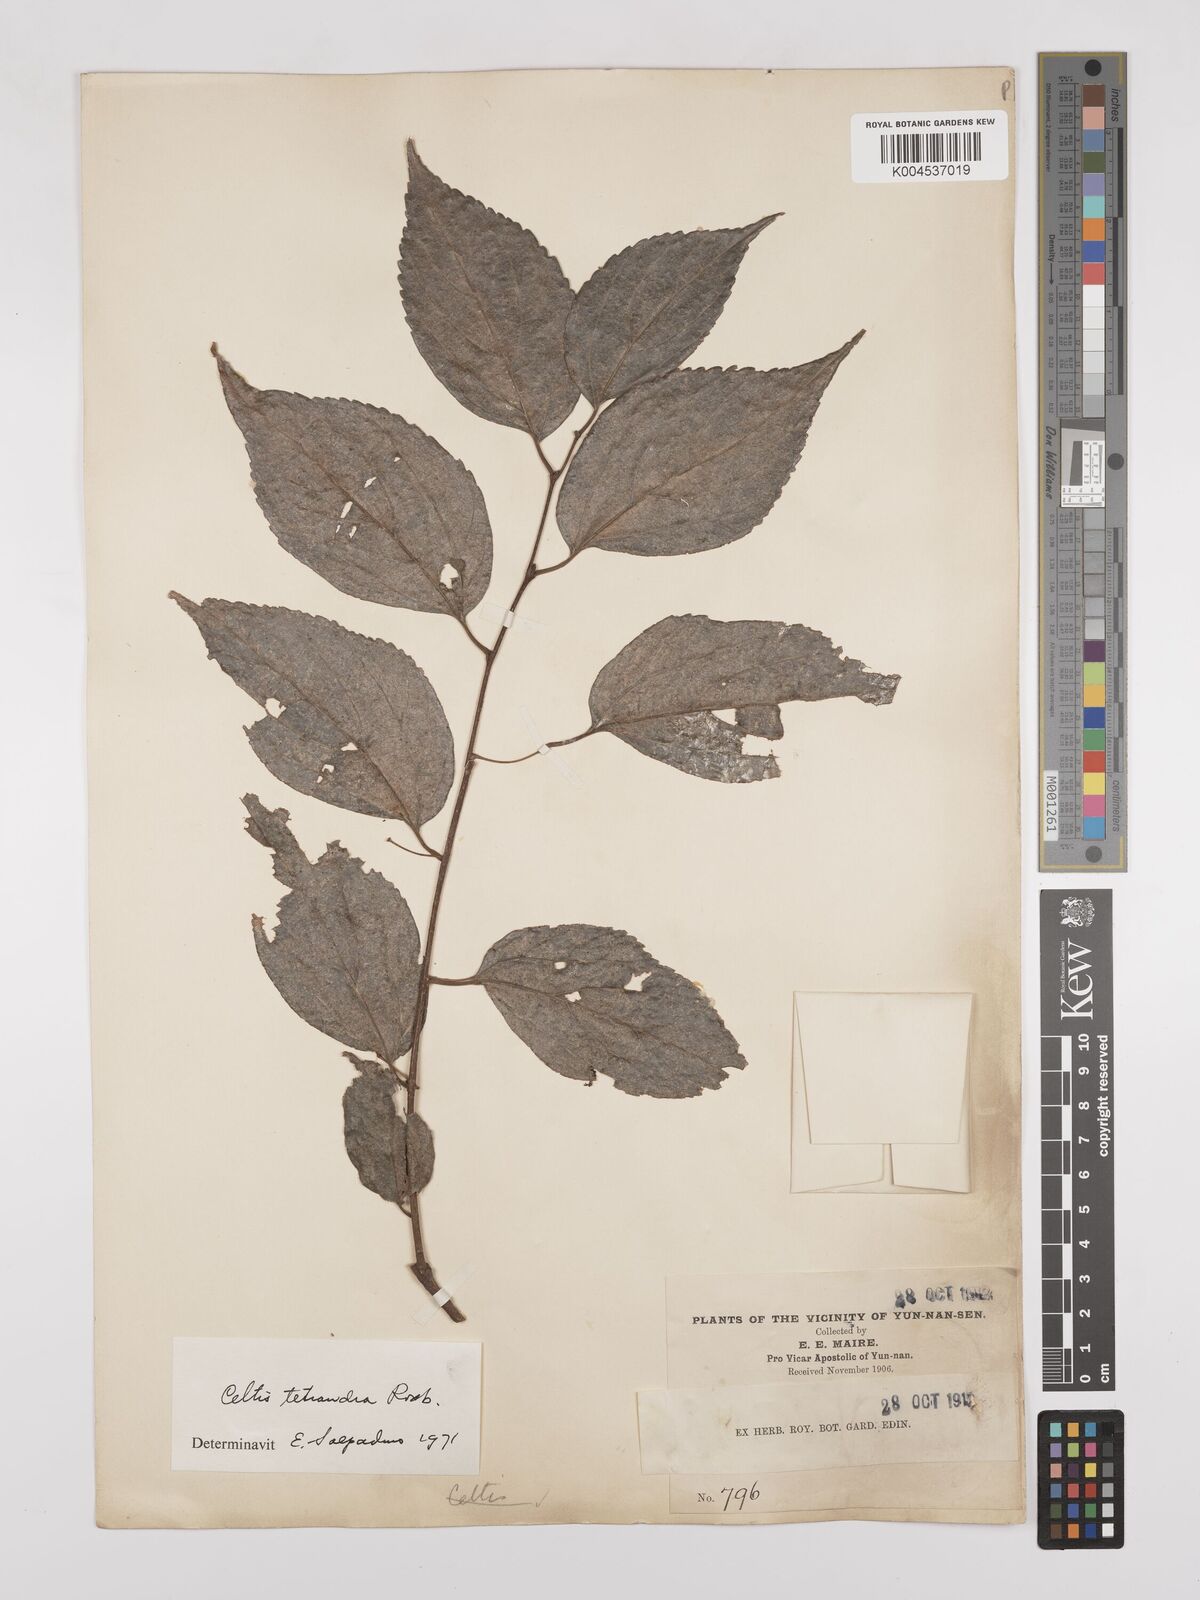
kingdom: Plantae
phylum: Tracheophyta
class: Magnoliopsida
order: Rosales
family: Cannabaceae
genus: Celtis
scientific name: Celtis tetrandra
